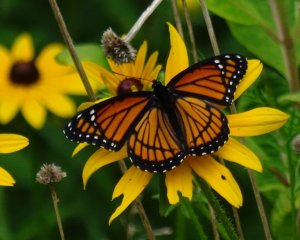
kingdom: Animalia
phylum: Arthropoda
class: Insecta
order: Lepidoptera
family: Nymphalidae
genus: Limenitis
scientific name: Limenitis archippus
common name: Viceroy
